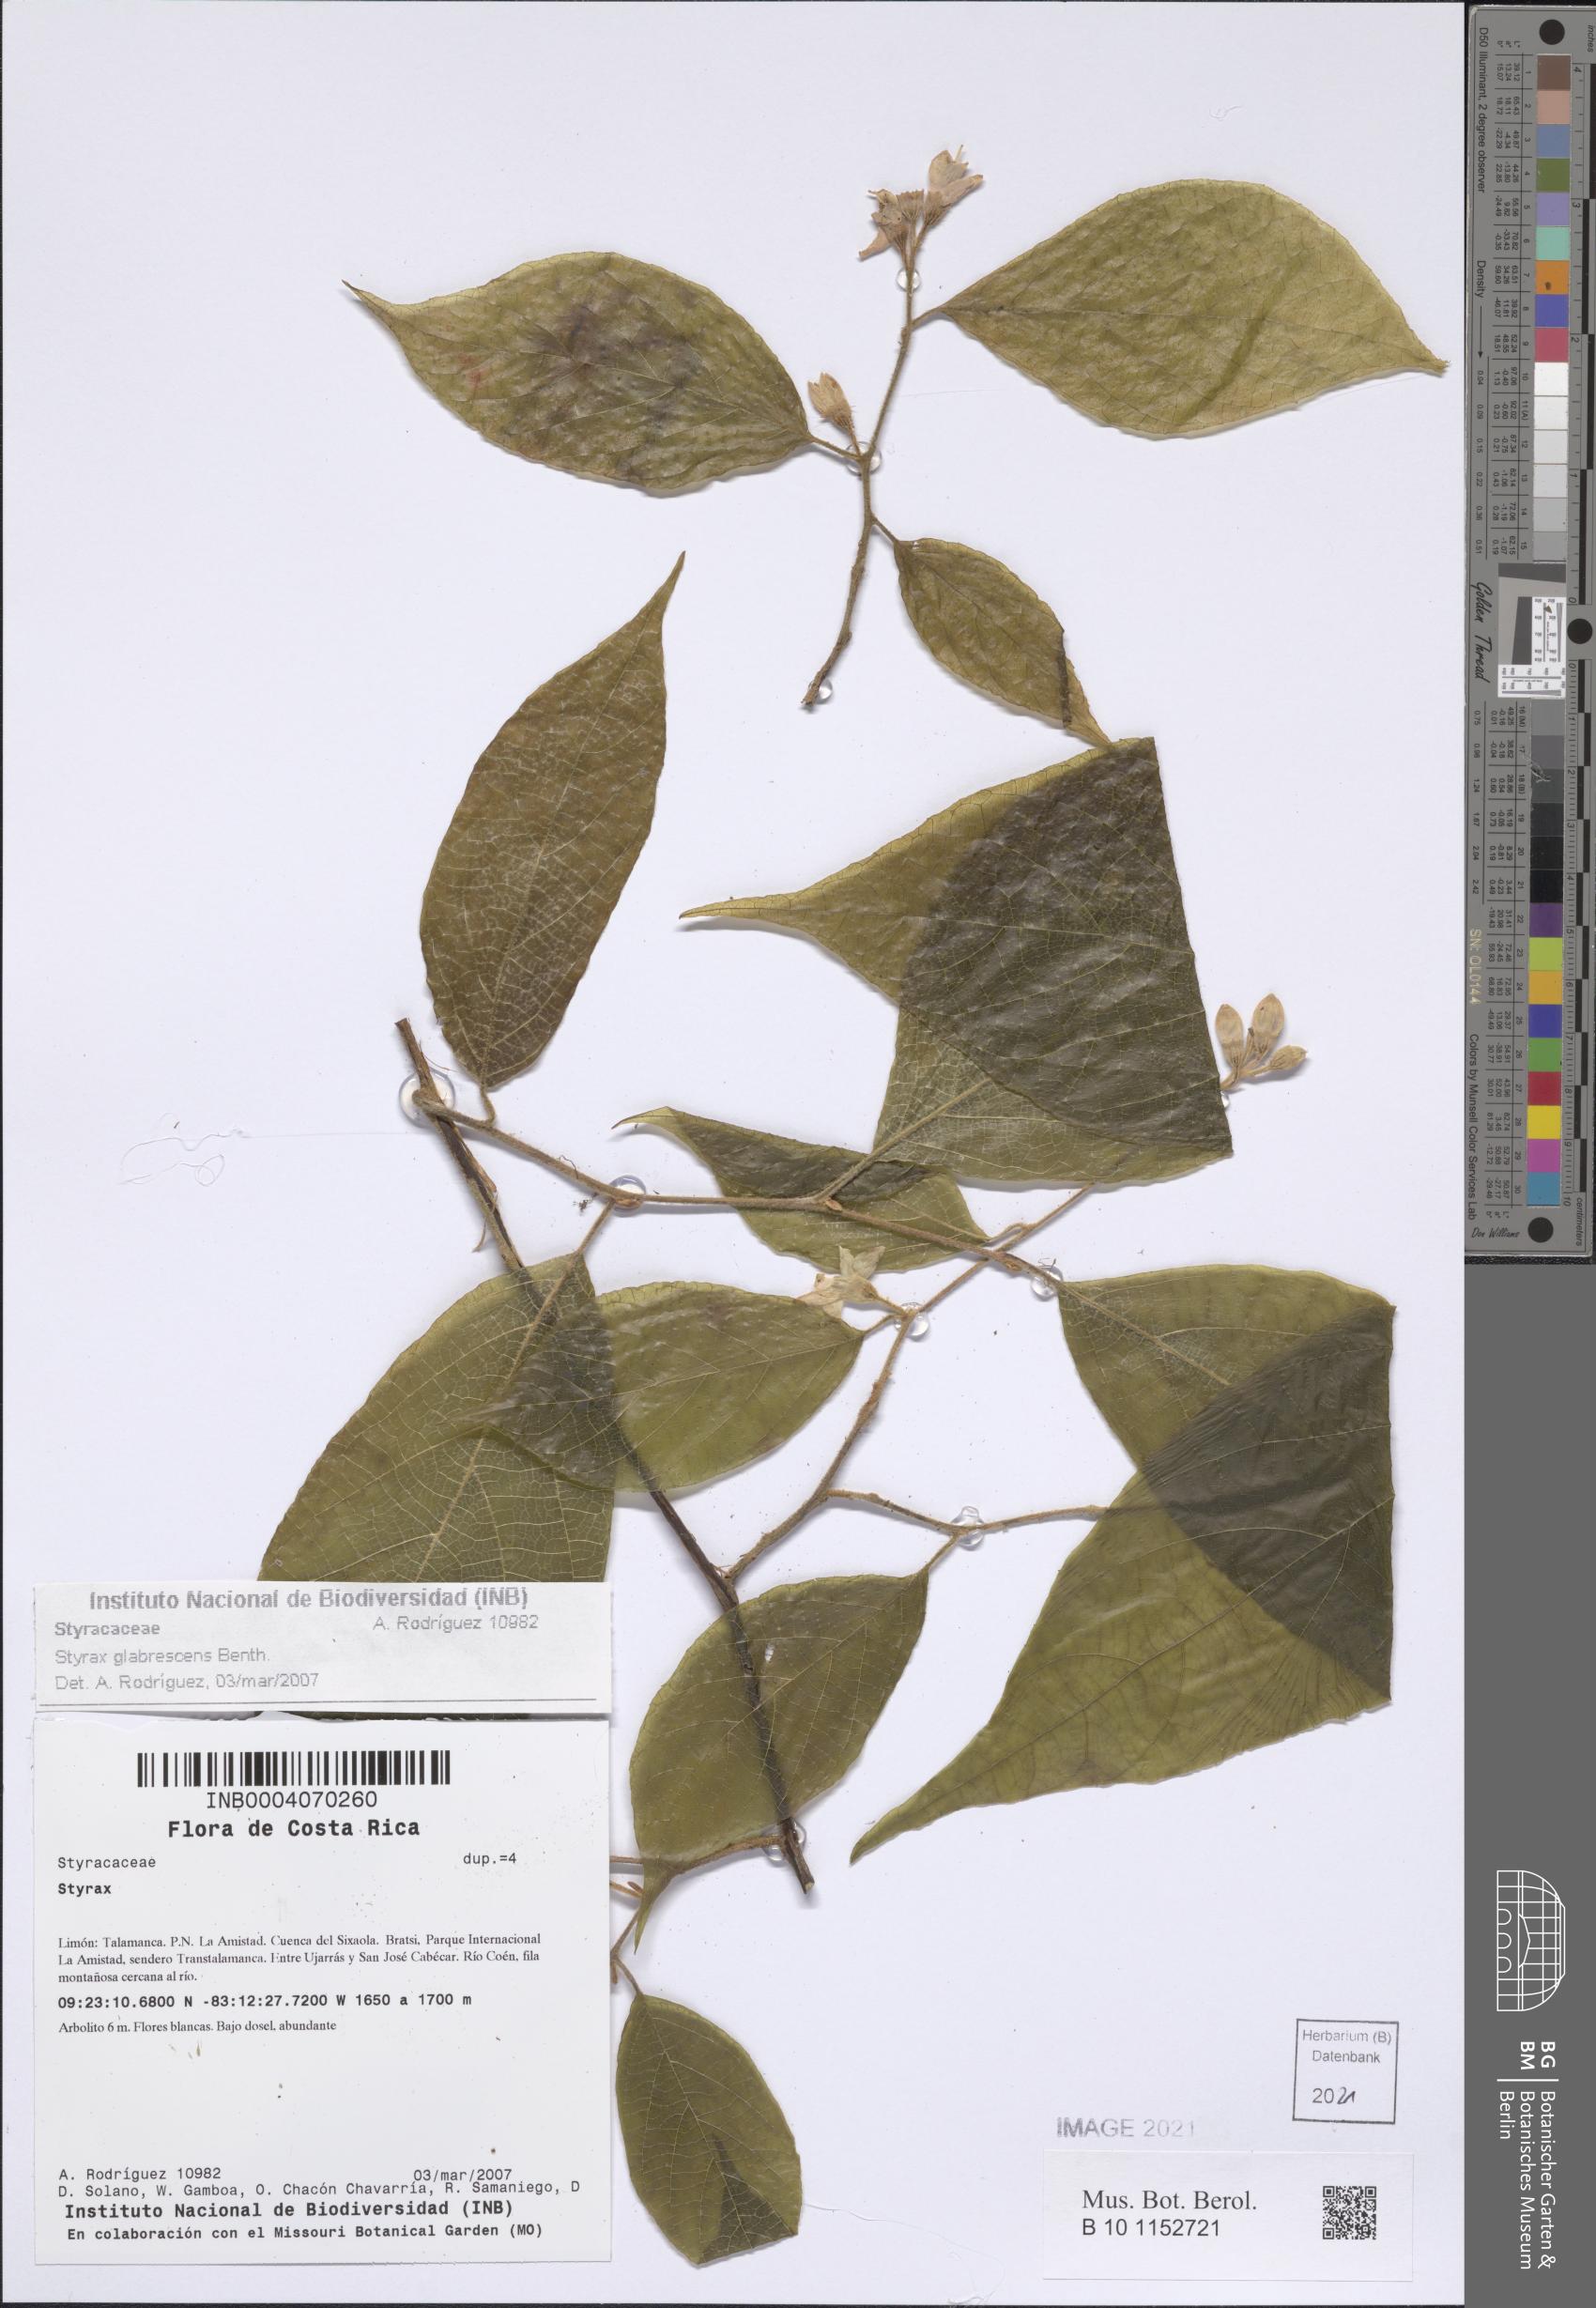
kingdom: Plantae
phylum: Tracheophyta
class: Magnoliopsida
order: Ericales
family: Styracaceae
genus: Styrax
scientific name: Styrax glabrescens
